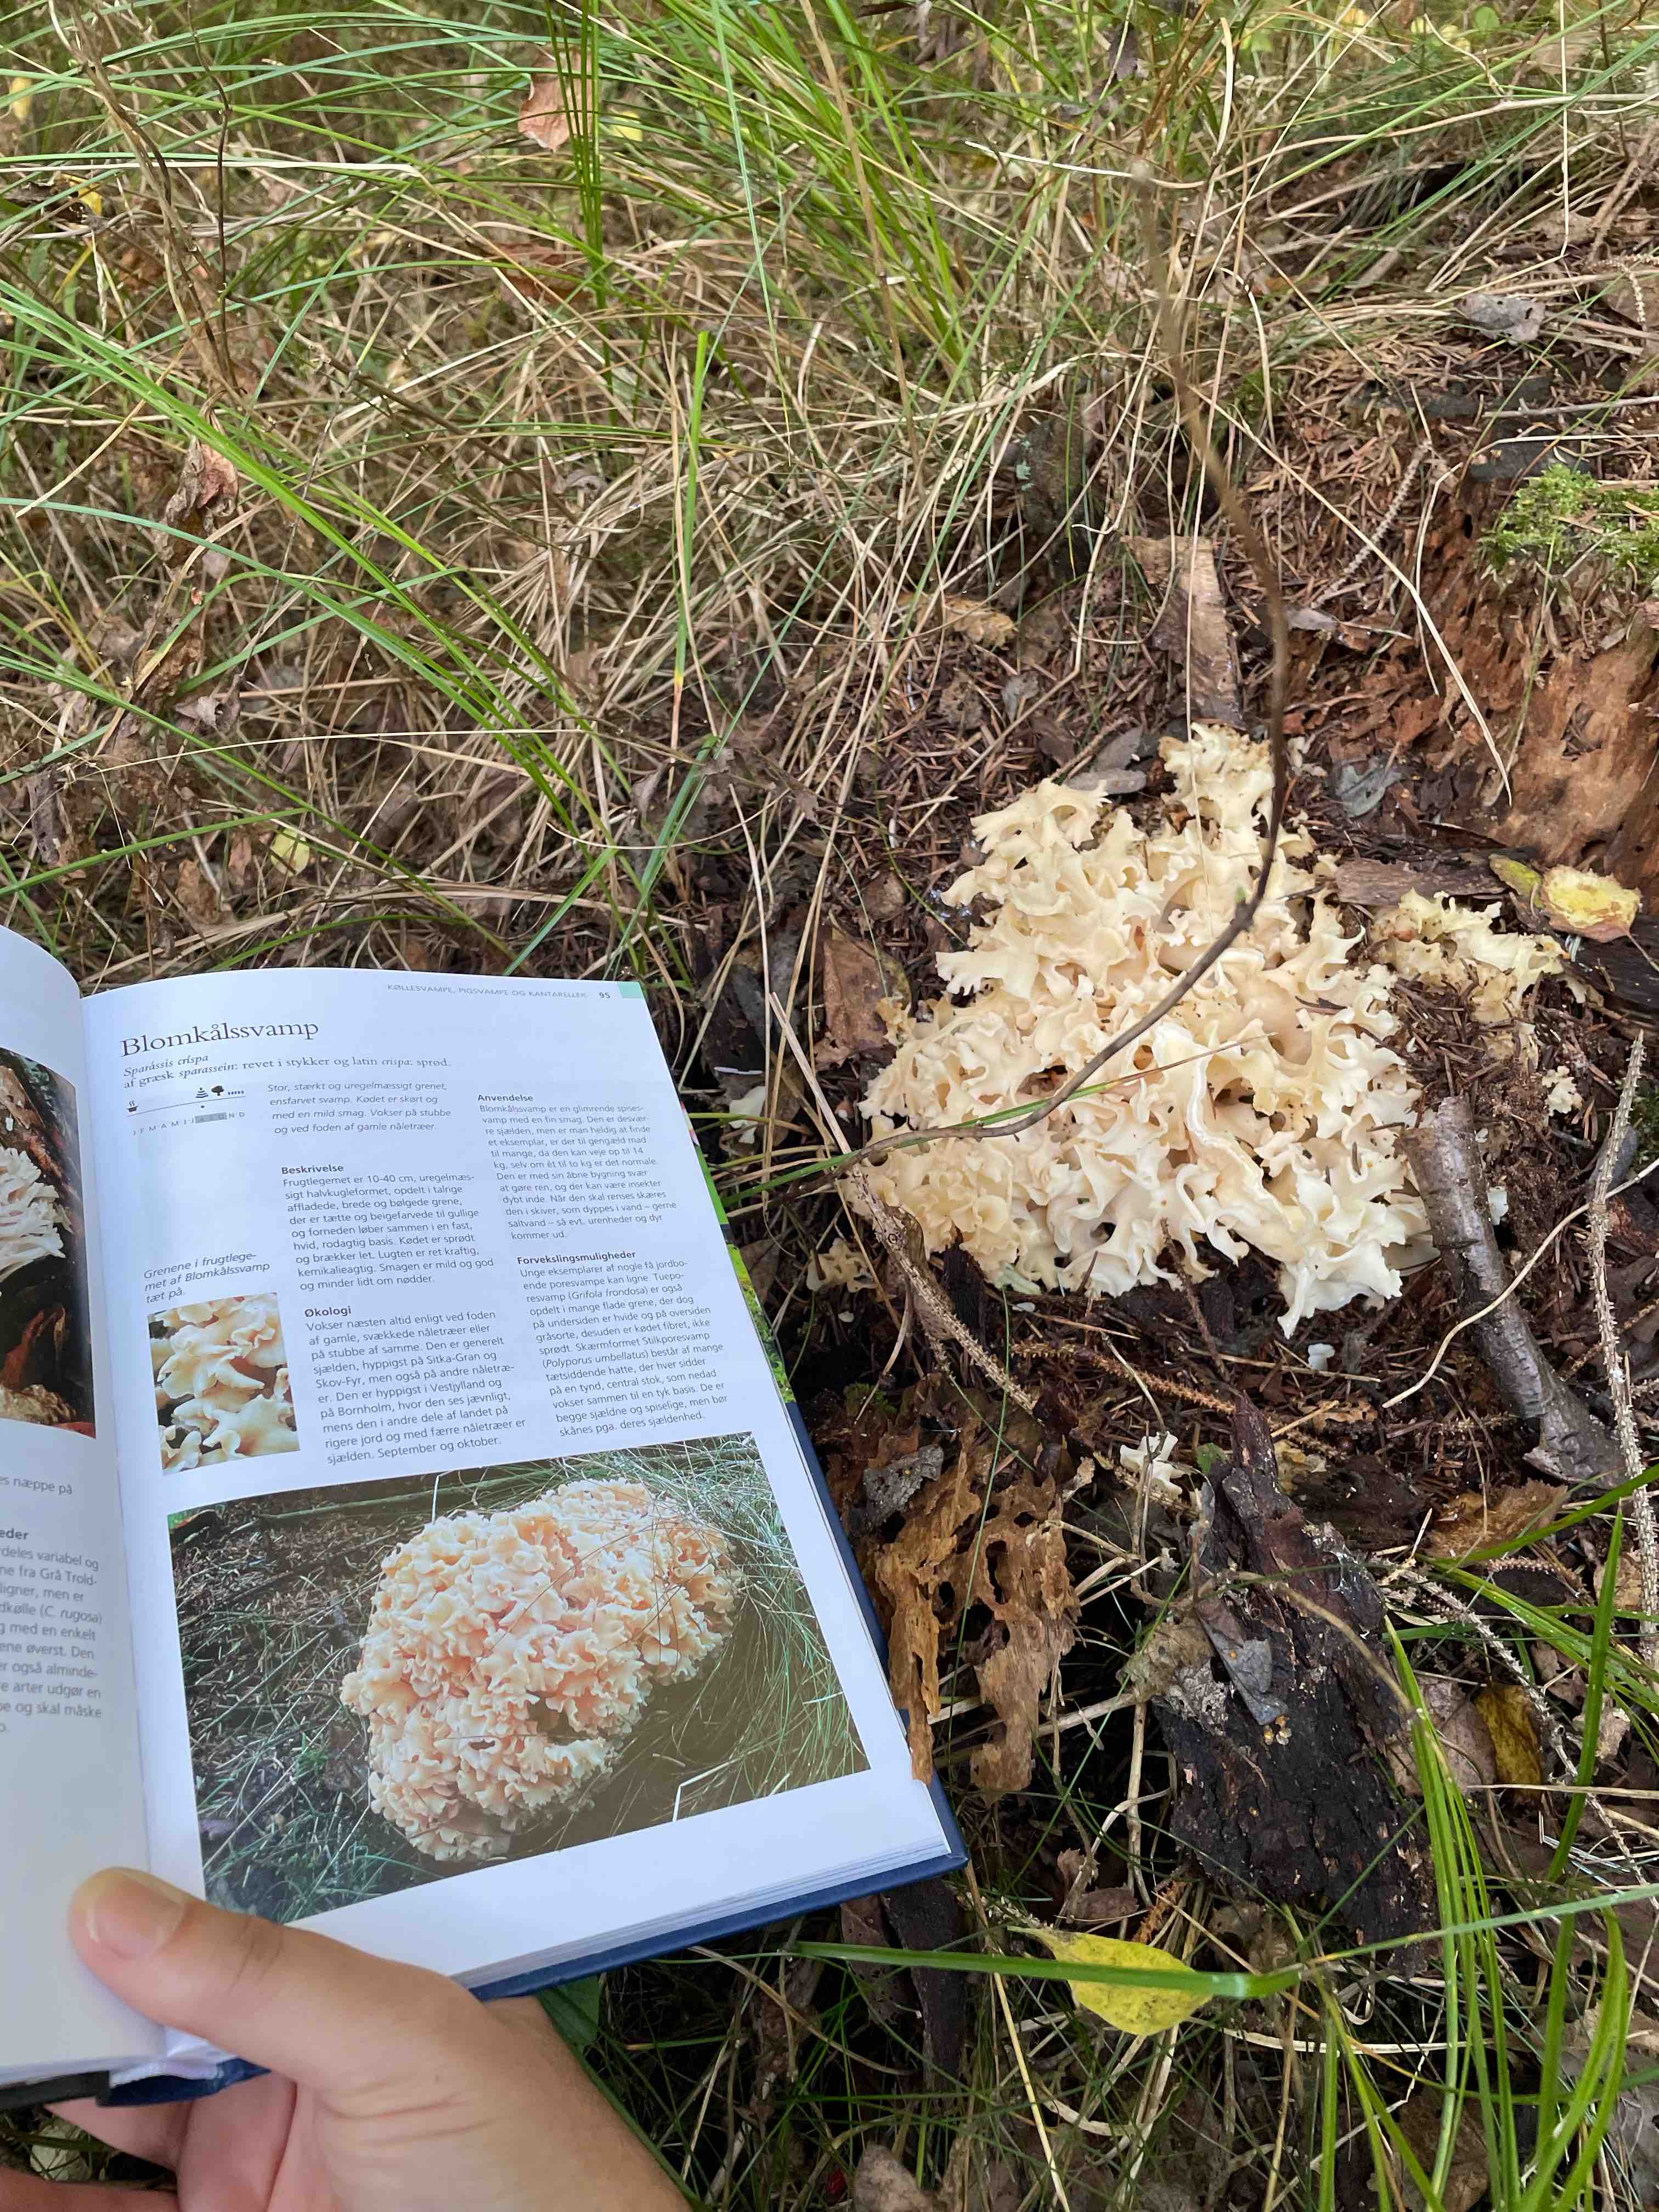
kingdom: Fungi
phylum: Basidiomycota
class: Agaricomycetes
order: Polyporales
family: Sparassidaceae
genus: Sparassis
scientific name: Sparassis crispa
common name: kruset blomkålssvamp
